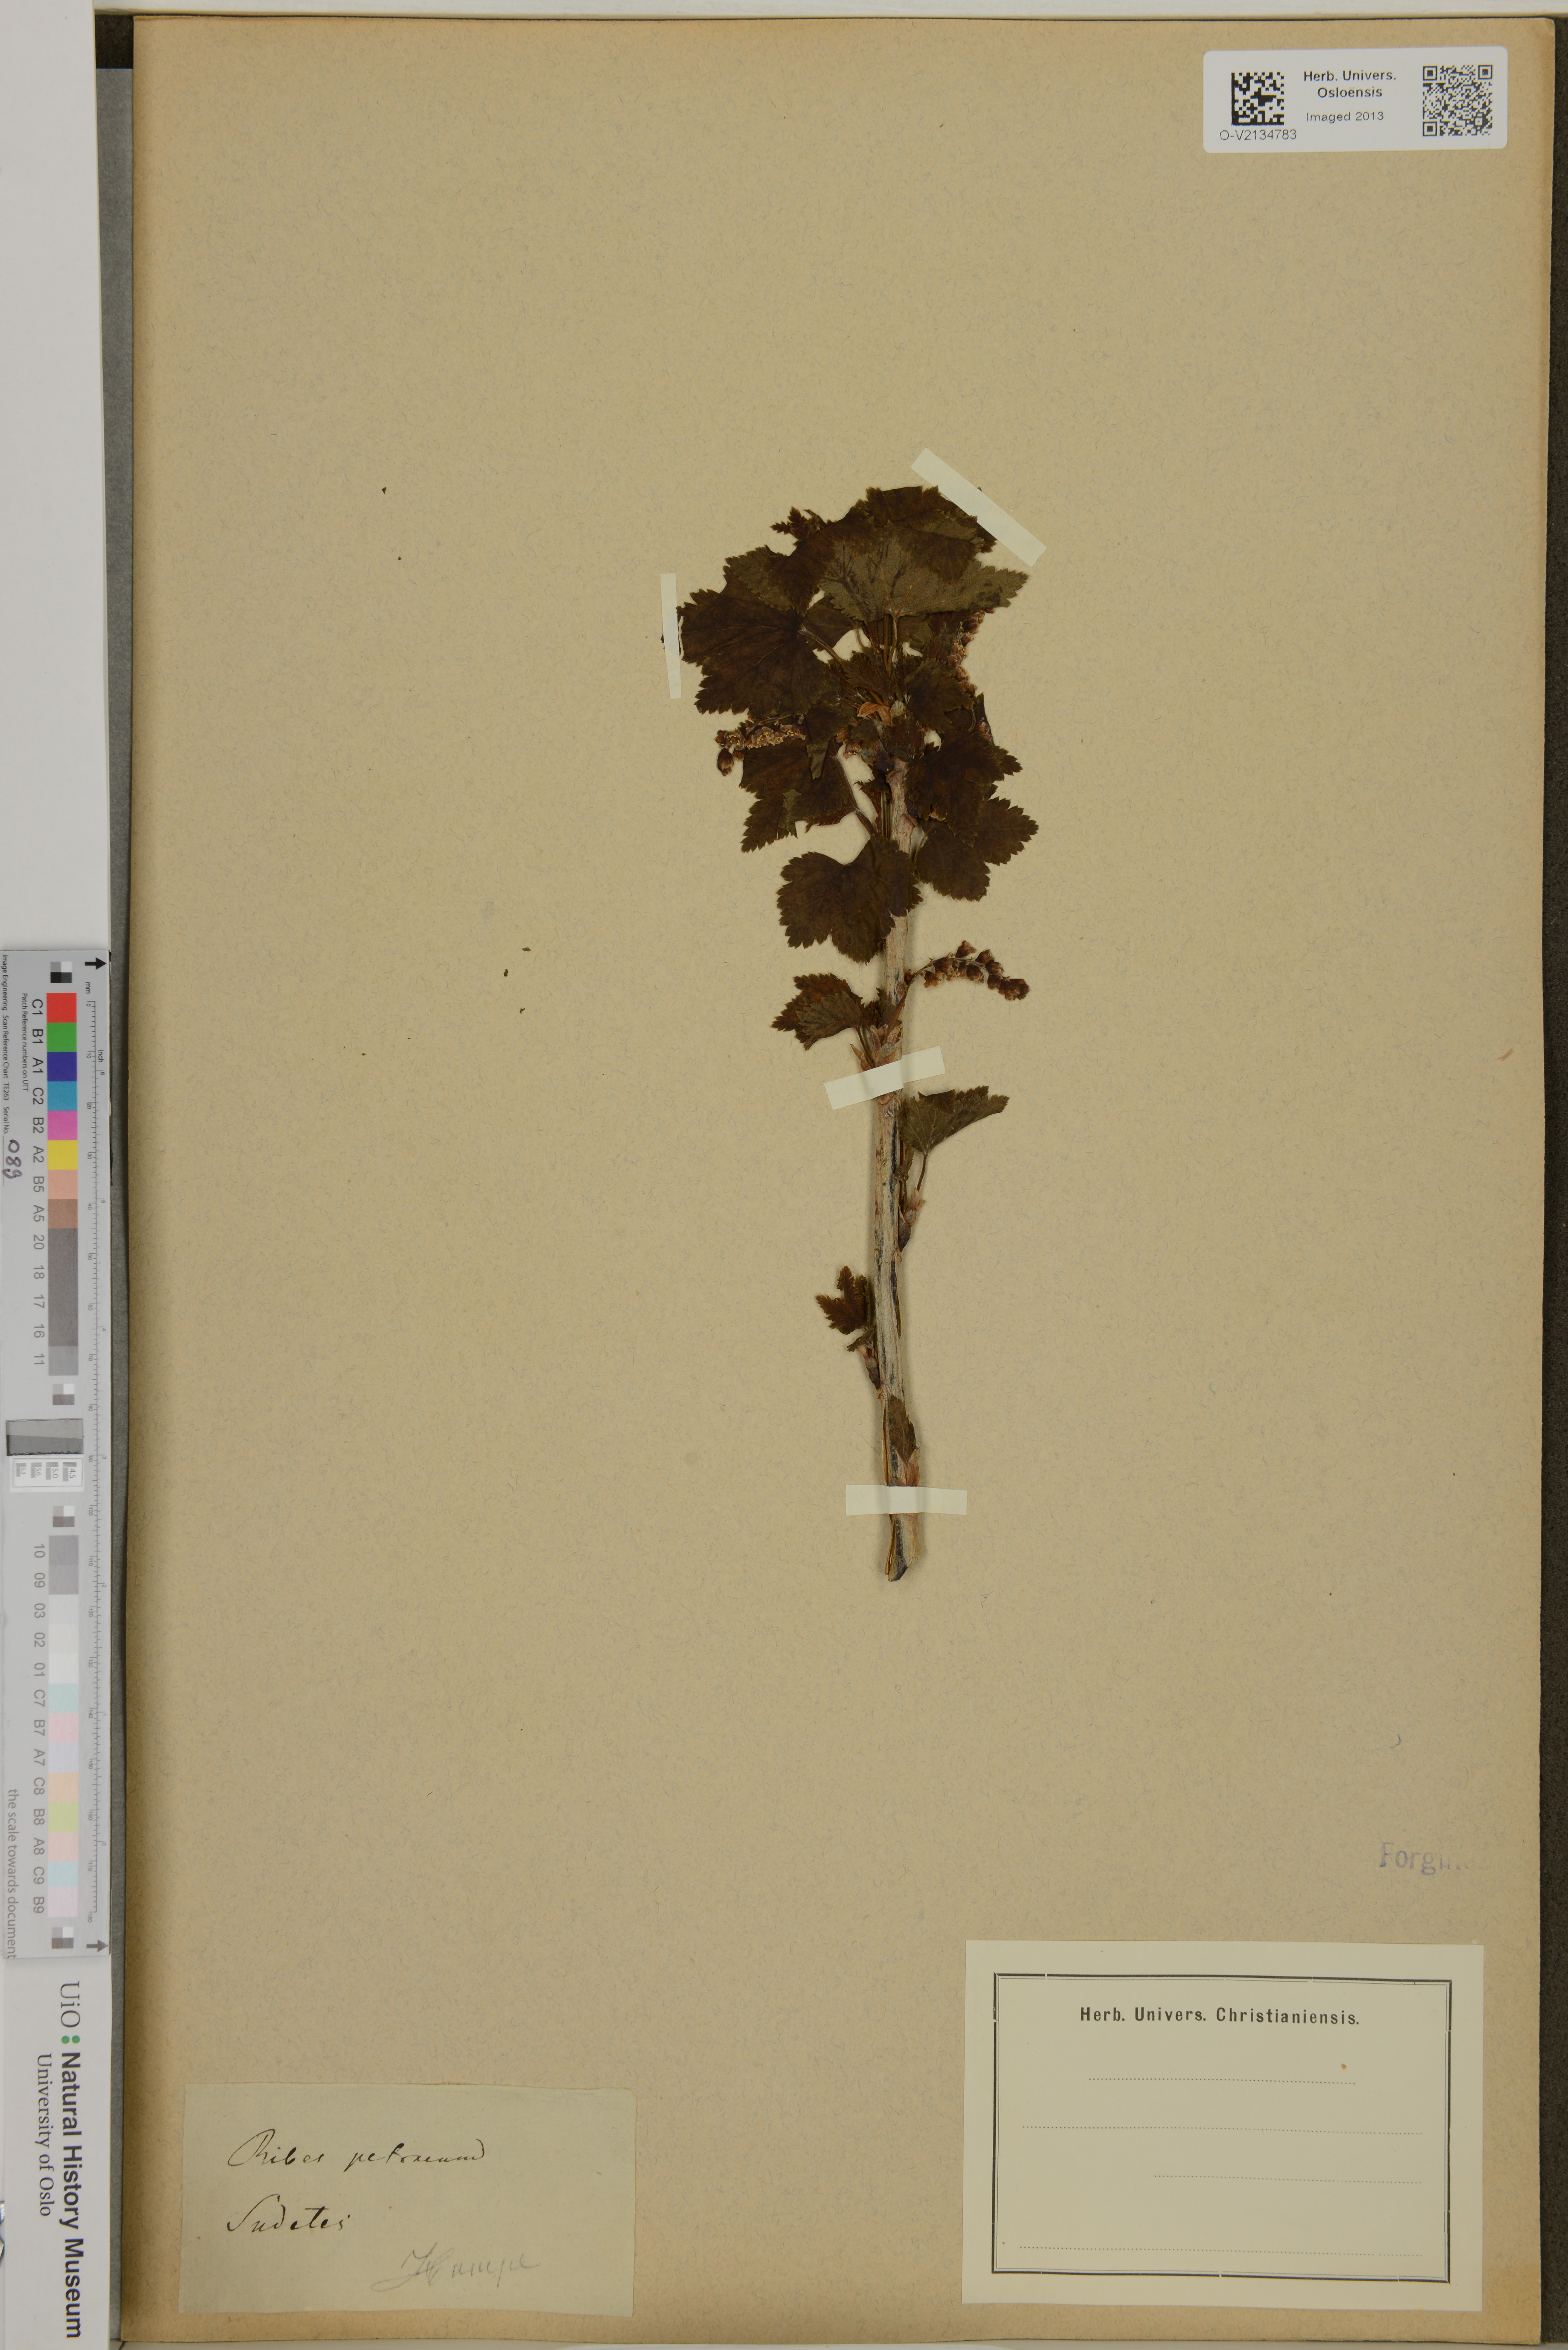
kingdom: Plantae
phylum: Tracheophyta
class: Magnoliopsida
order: Saxifragales
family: Grossulariaceae
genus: Ribes
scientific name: Ribes petraeum
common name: Rock currant
